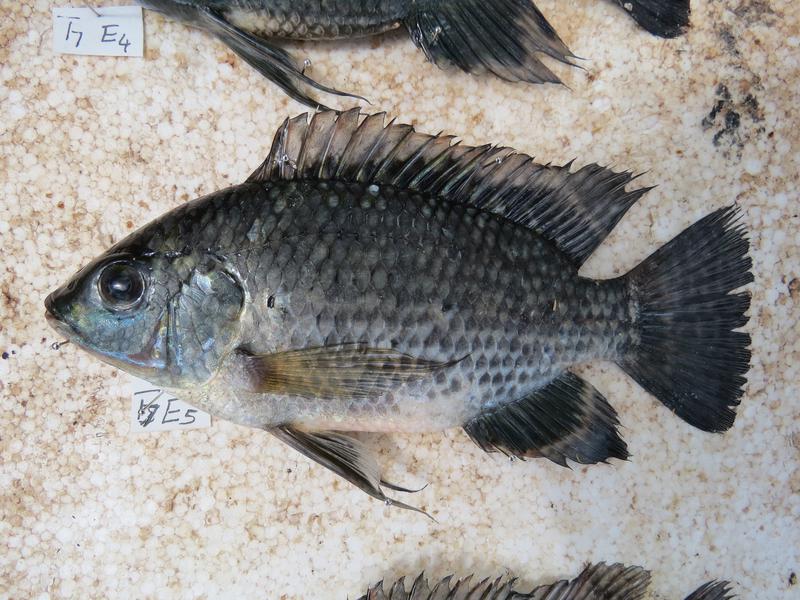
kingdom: Animalia
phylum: Chordata
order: Perciformes
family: Cichlidae
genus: Oreochromis
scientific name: Oreochromis leucostictus
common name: Blue spotted tilapia
